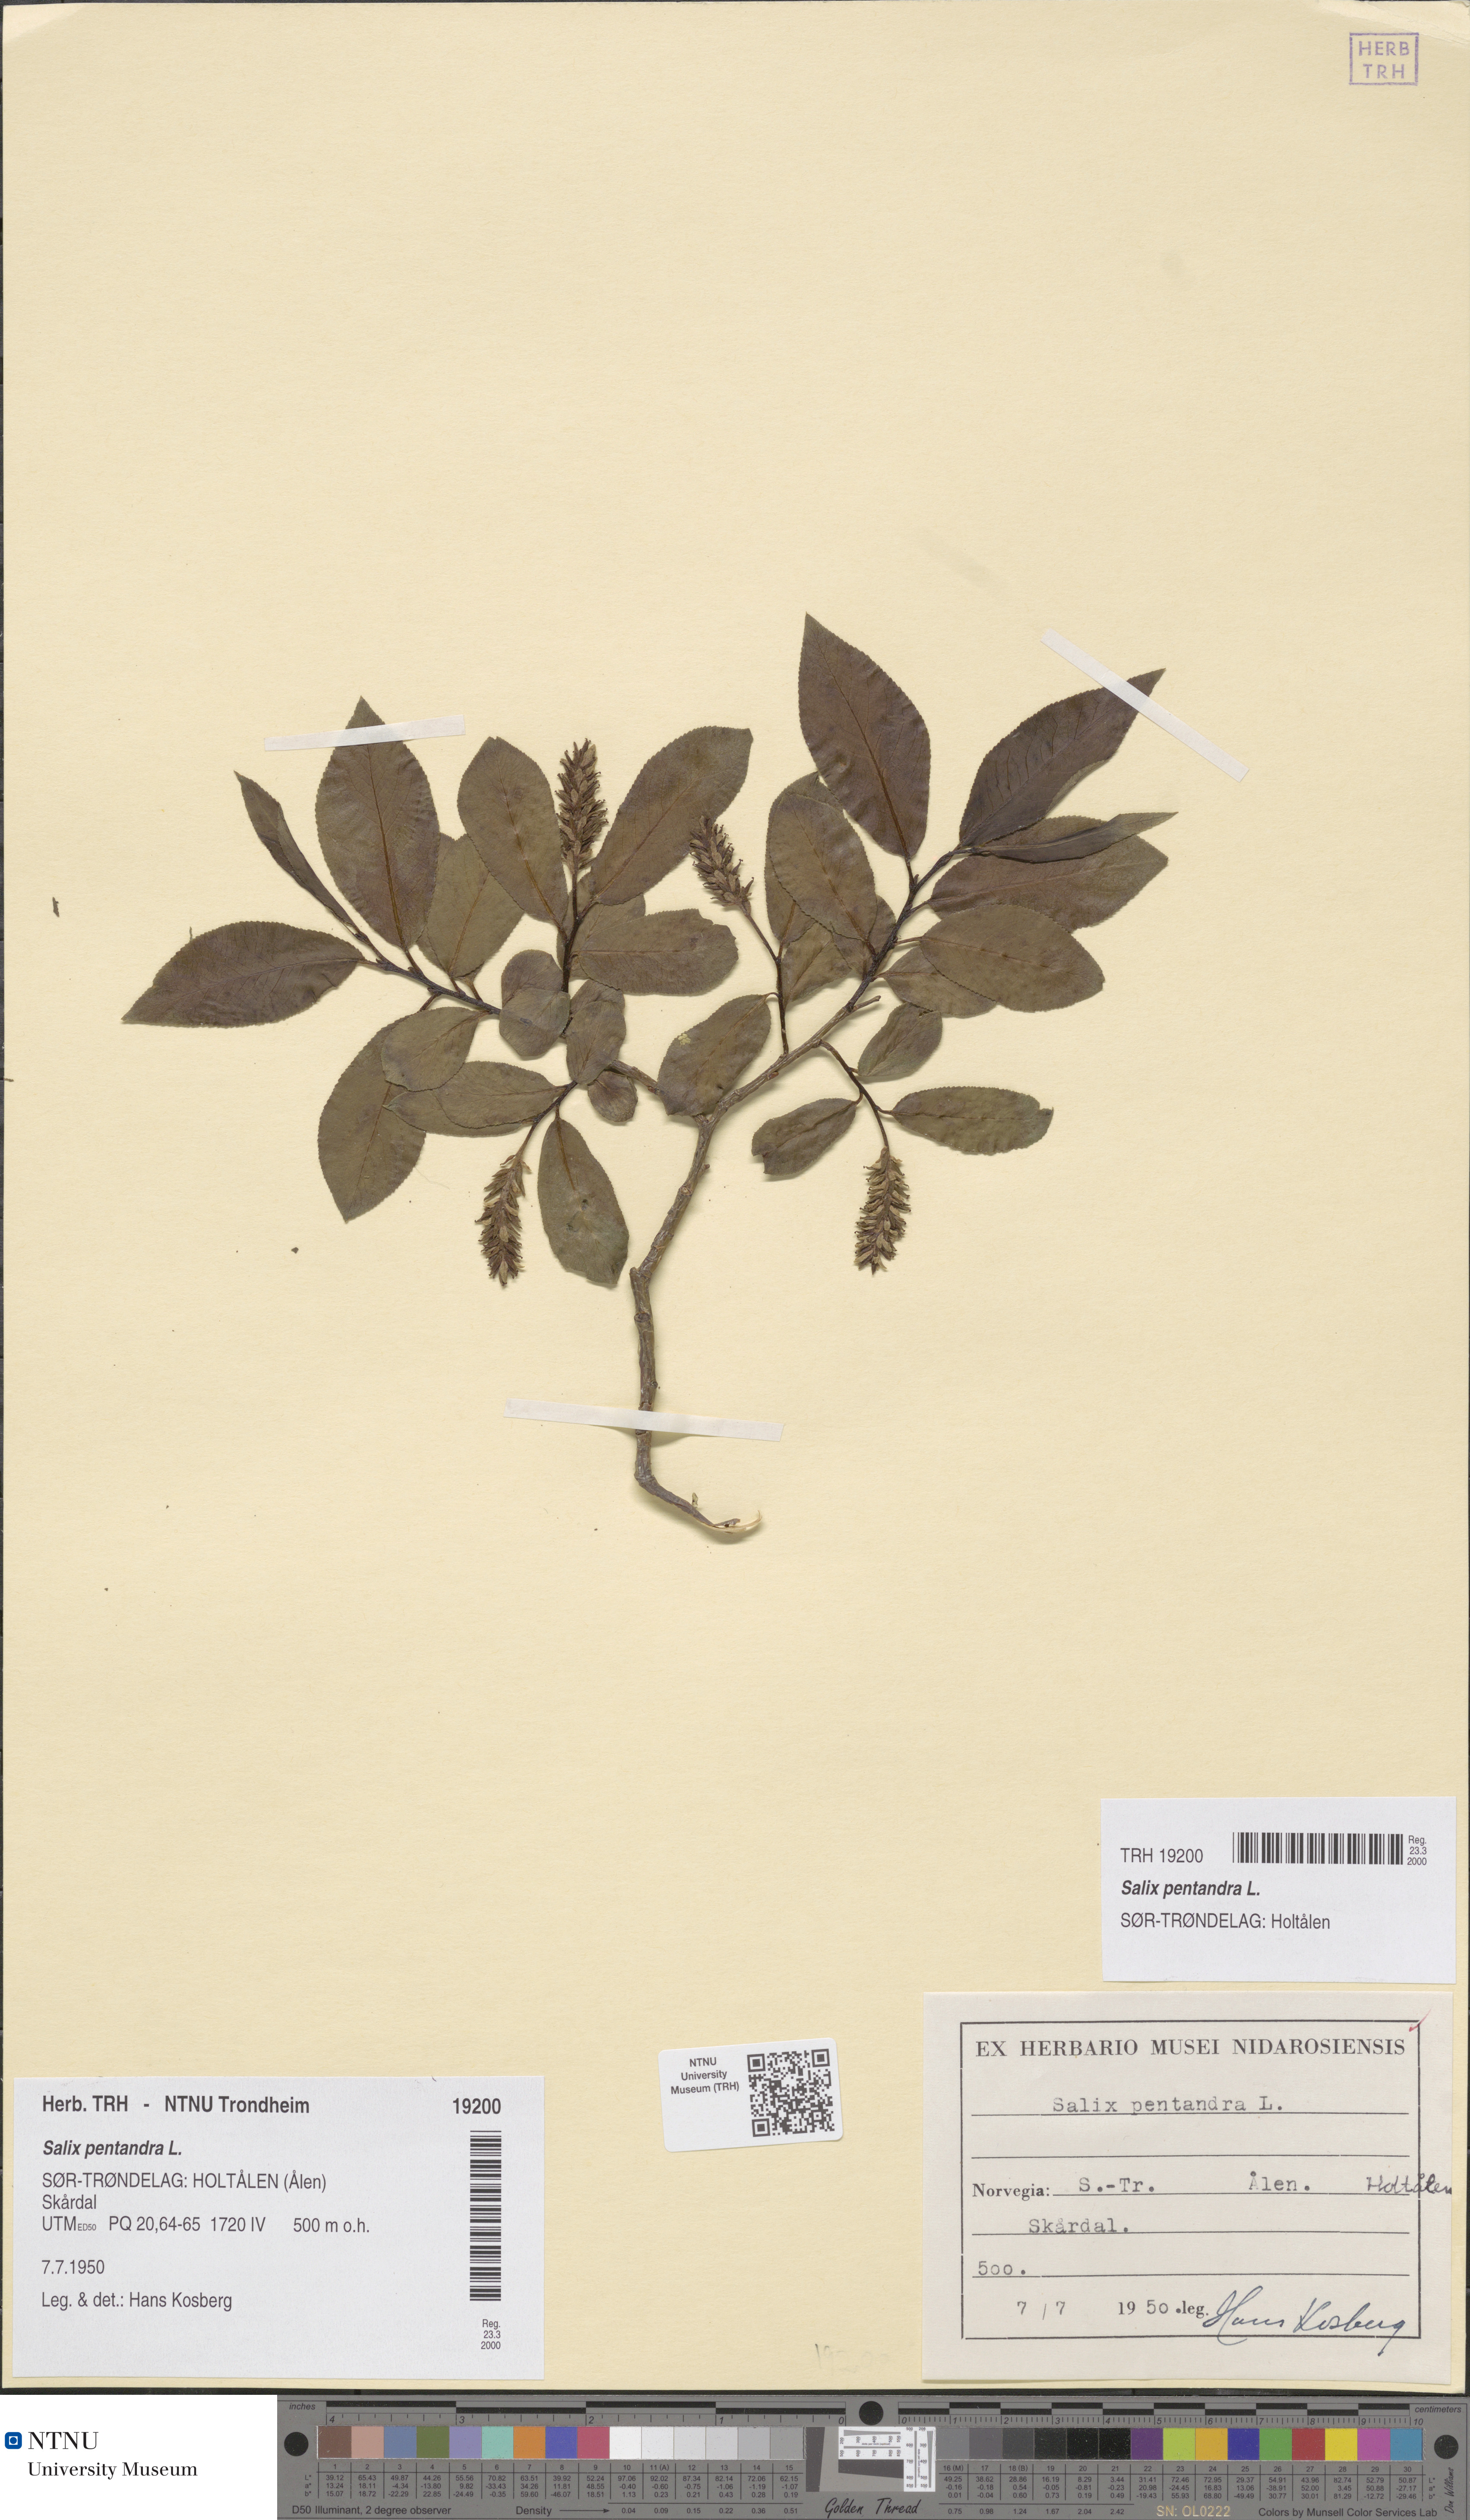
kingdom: Plantae
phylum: Tracheophyta
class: Magnoliopsida
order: Malpighiales
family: Salicaceae
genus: Salix
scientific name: Salix pentandra
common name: Bay willow
